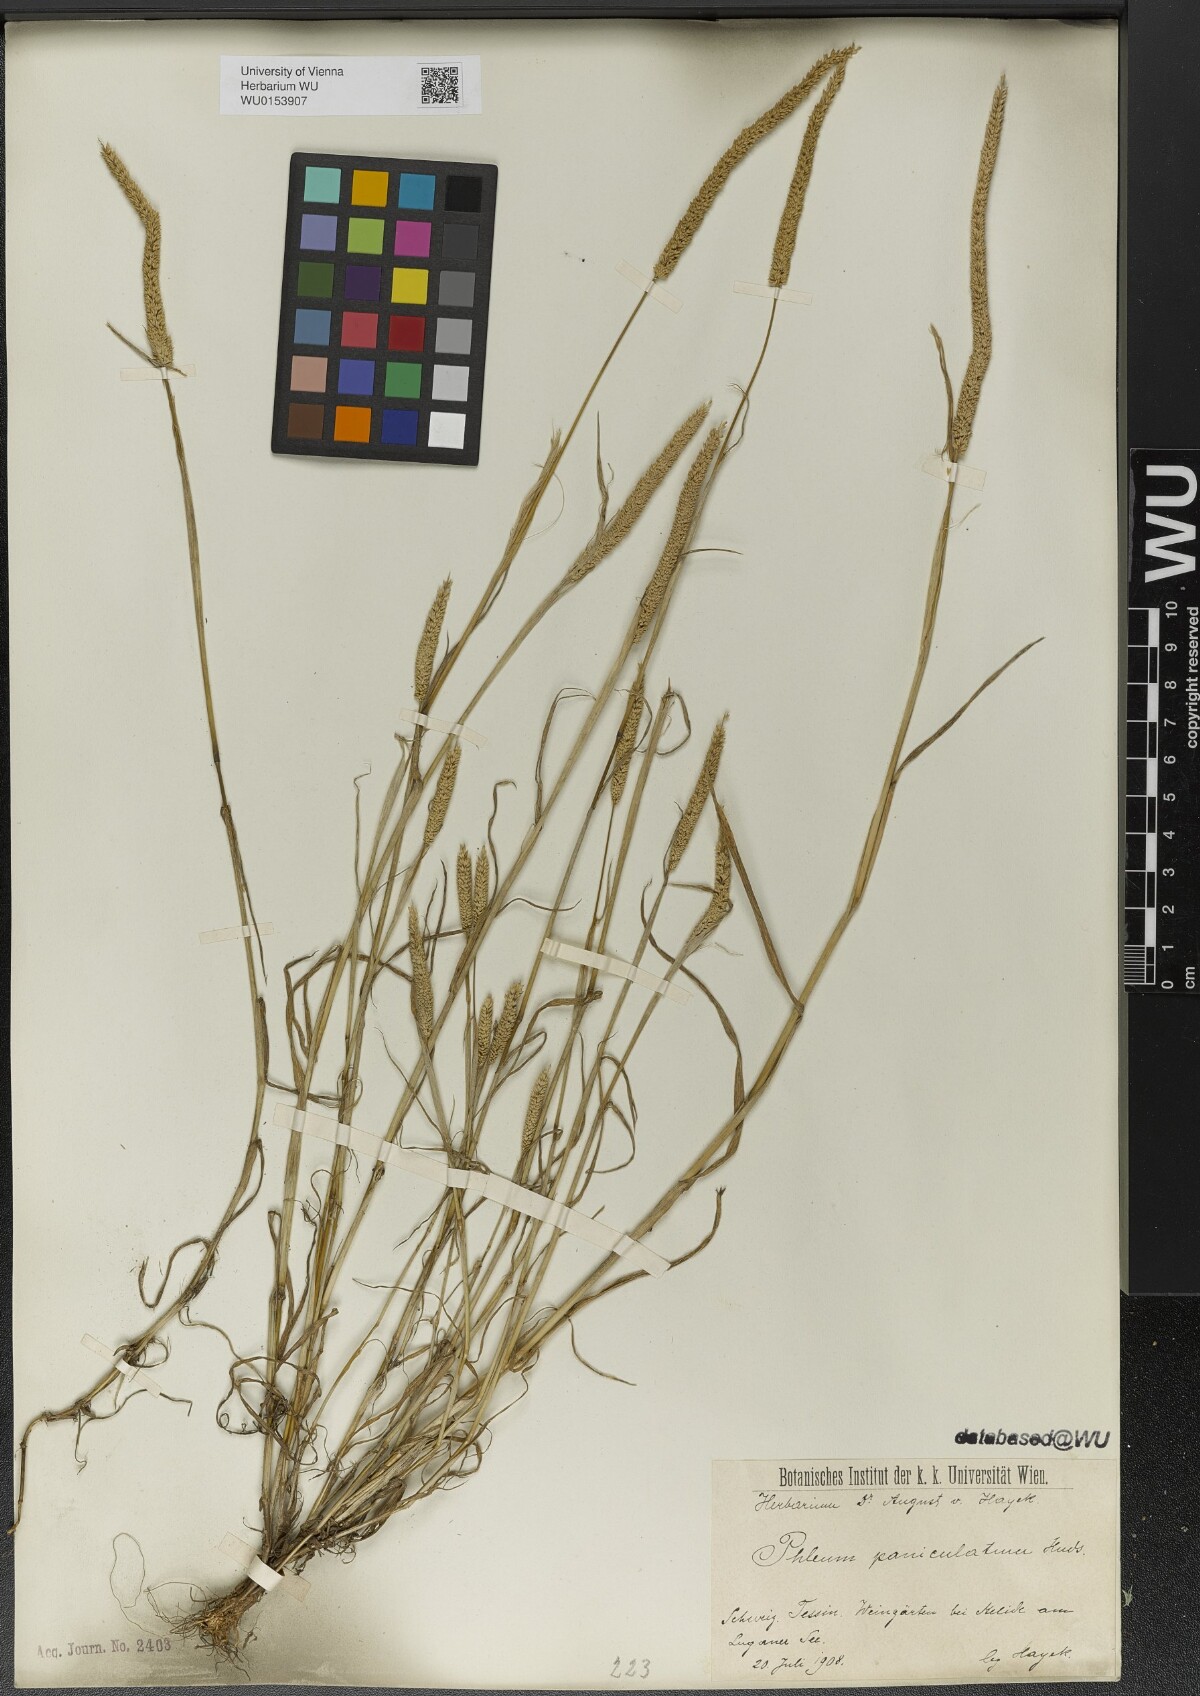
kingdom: Plantae
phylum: Tracheophyta
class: Liliopsida
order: Poales
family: Poaceae
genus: Phleum
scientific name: Phleum paniculatum
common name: British timothy
